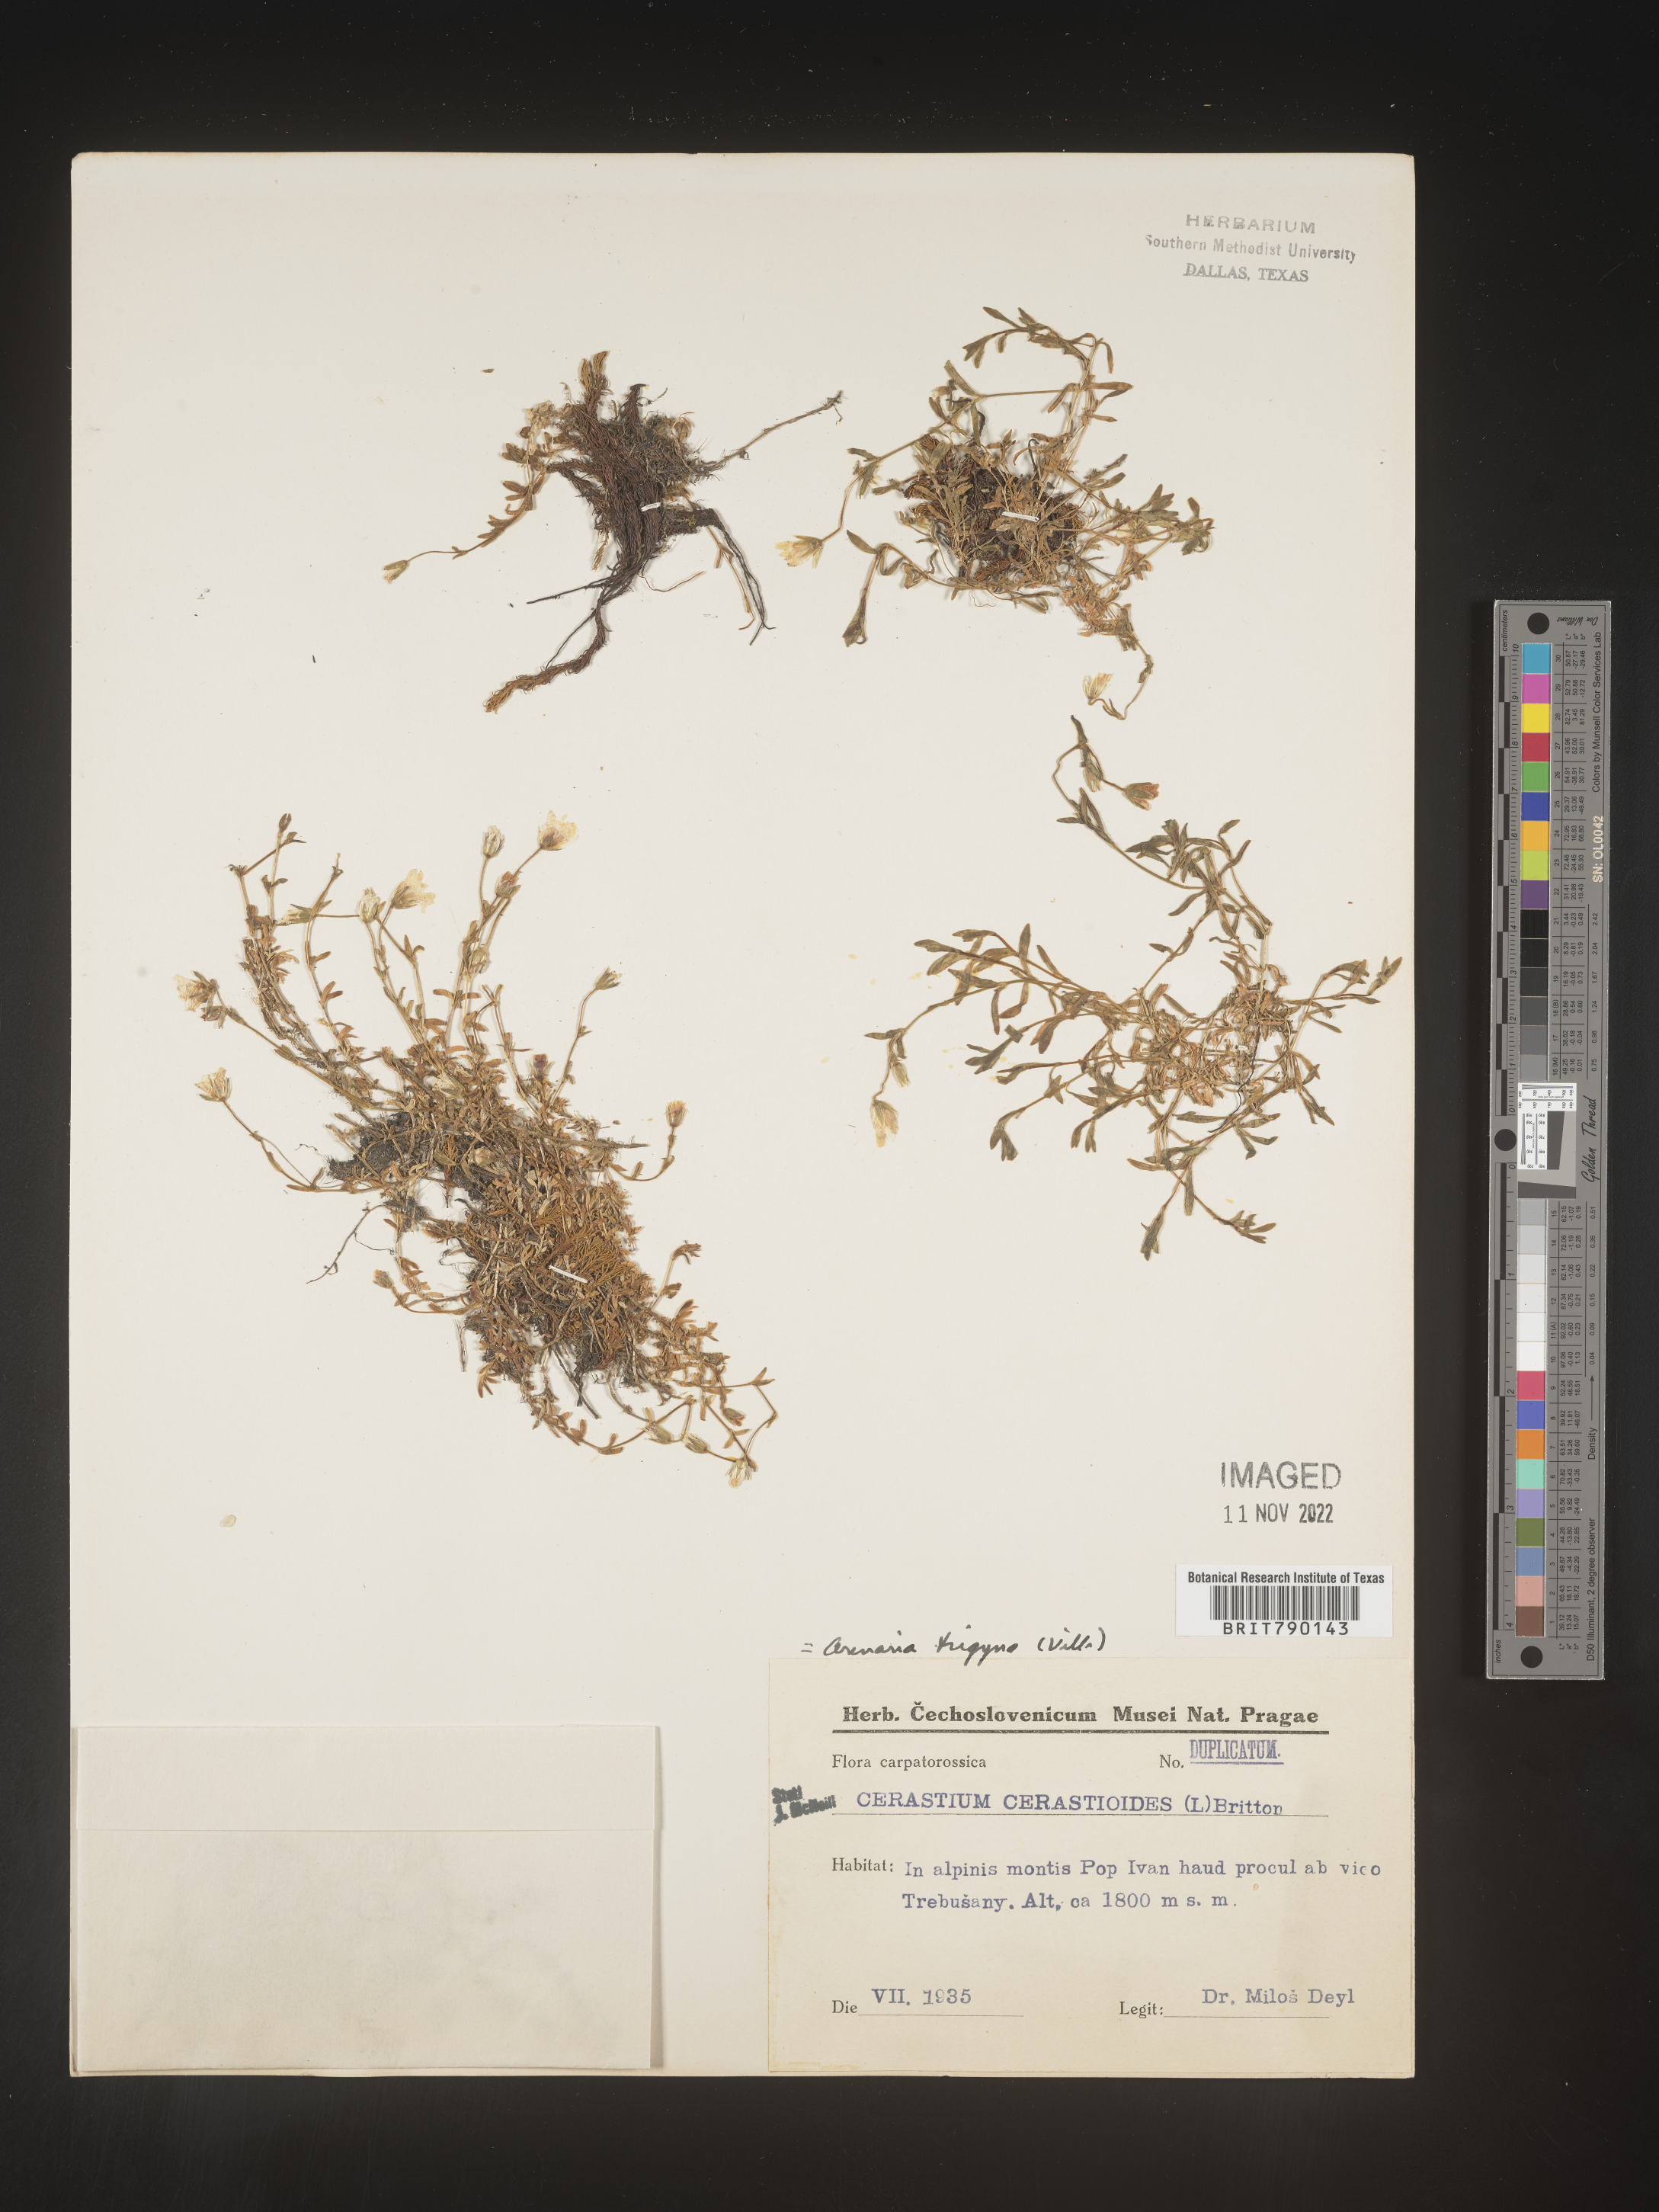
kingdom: Plantae
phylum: Tracheophyta
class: Magnoliopsida
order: Caryophyllales
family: Caryophyllaceae
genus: Cerastium
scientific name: Cerastium
